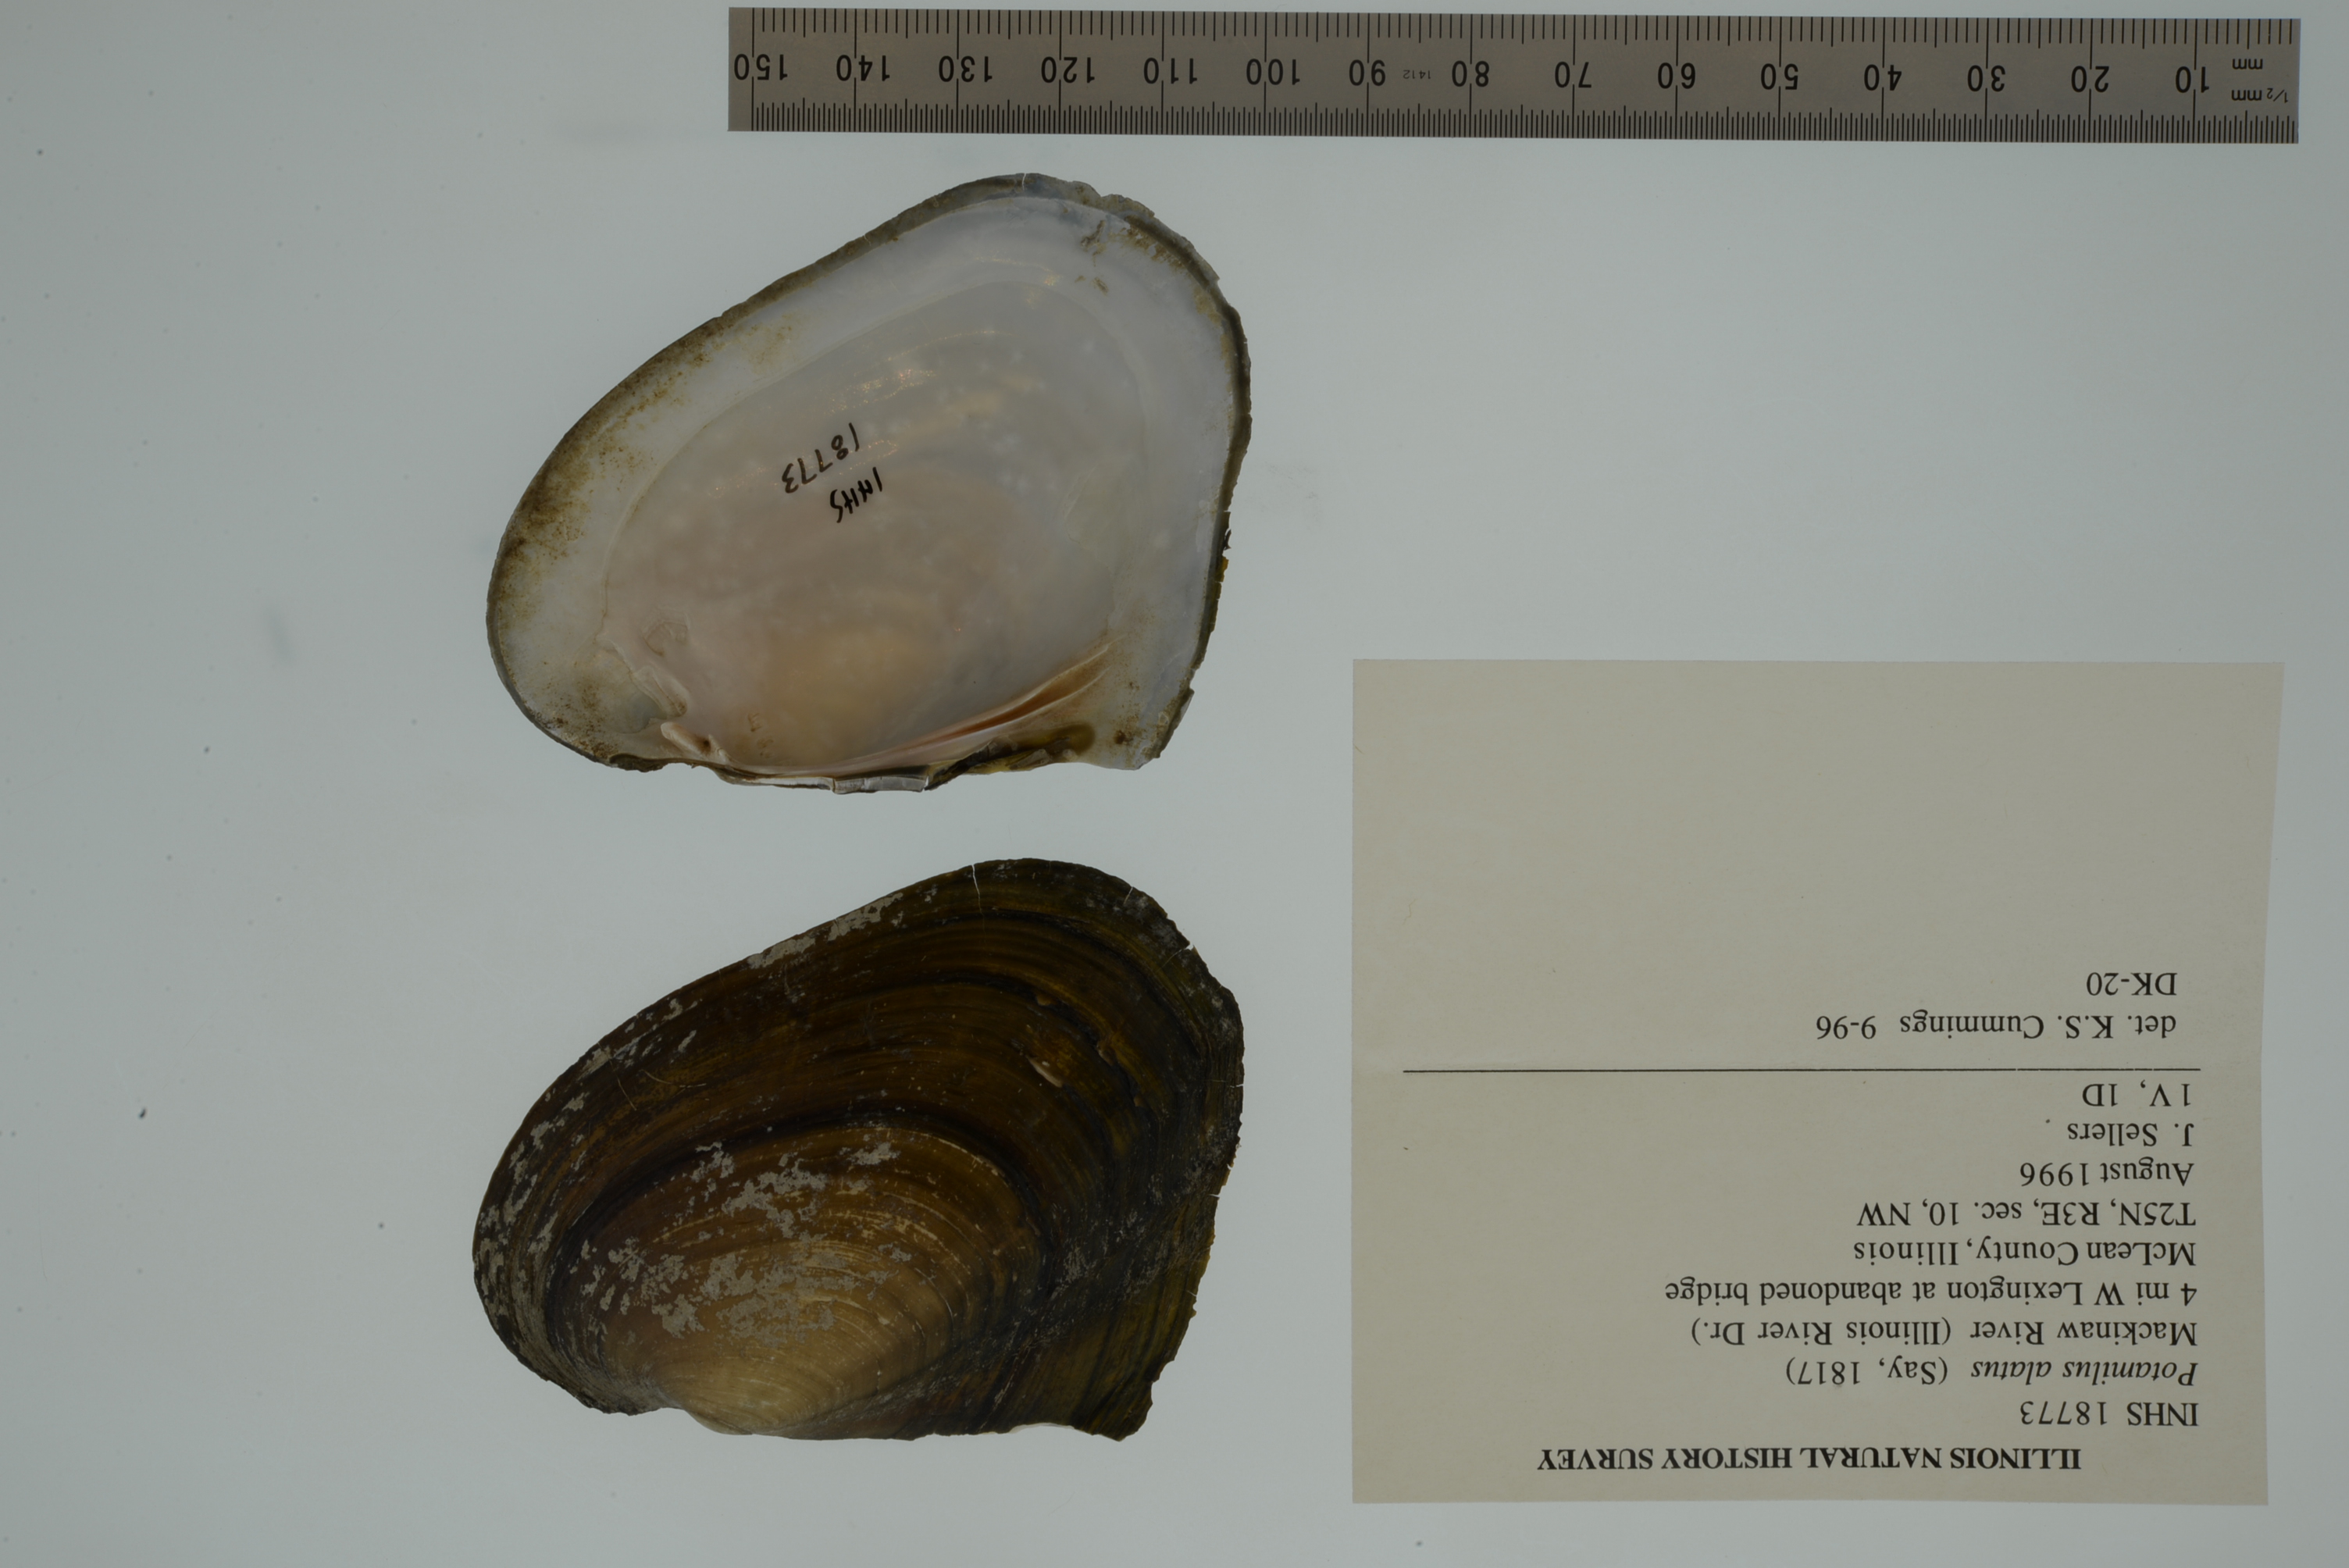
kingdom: Animalia
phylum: Mollusca
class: Bivalvia
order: Unionida
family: Unionidae
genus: Potamilus
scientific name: Potamilus alatus
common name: Pink heelsplitter
